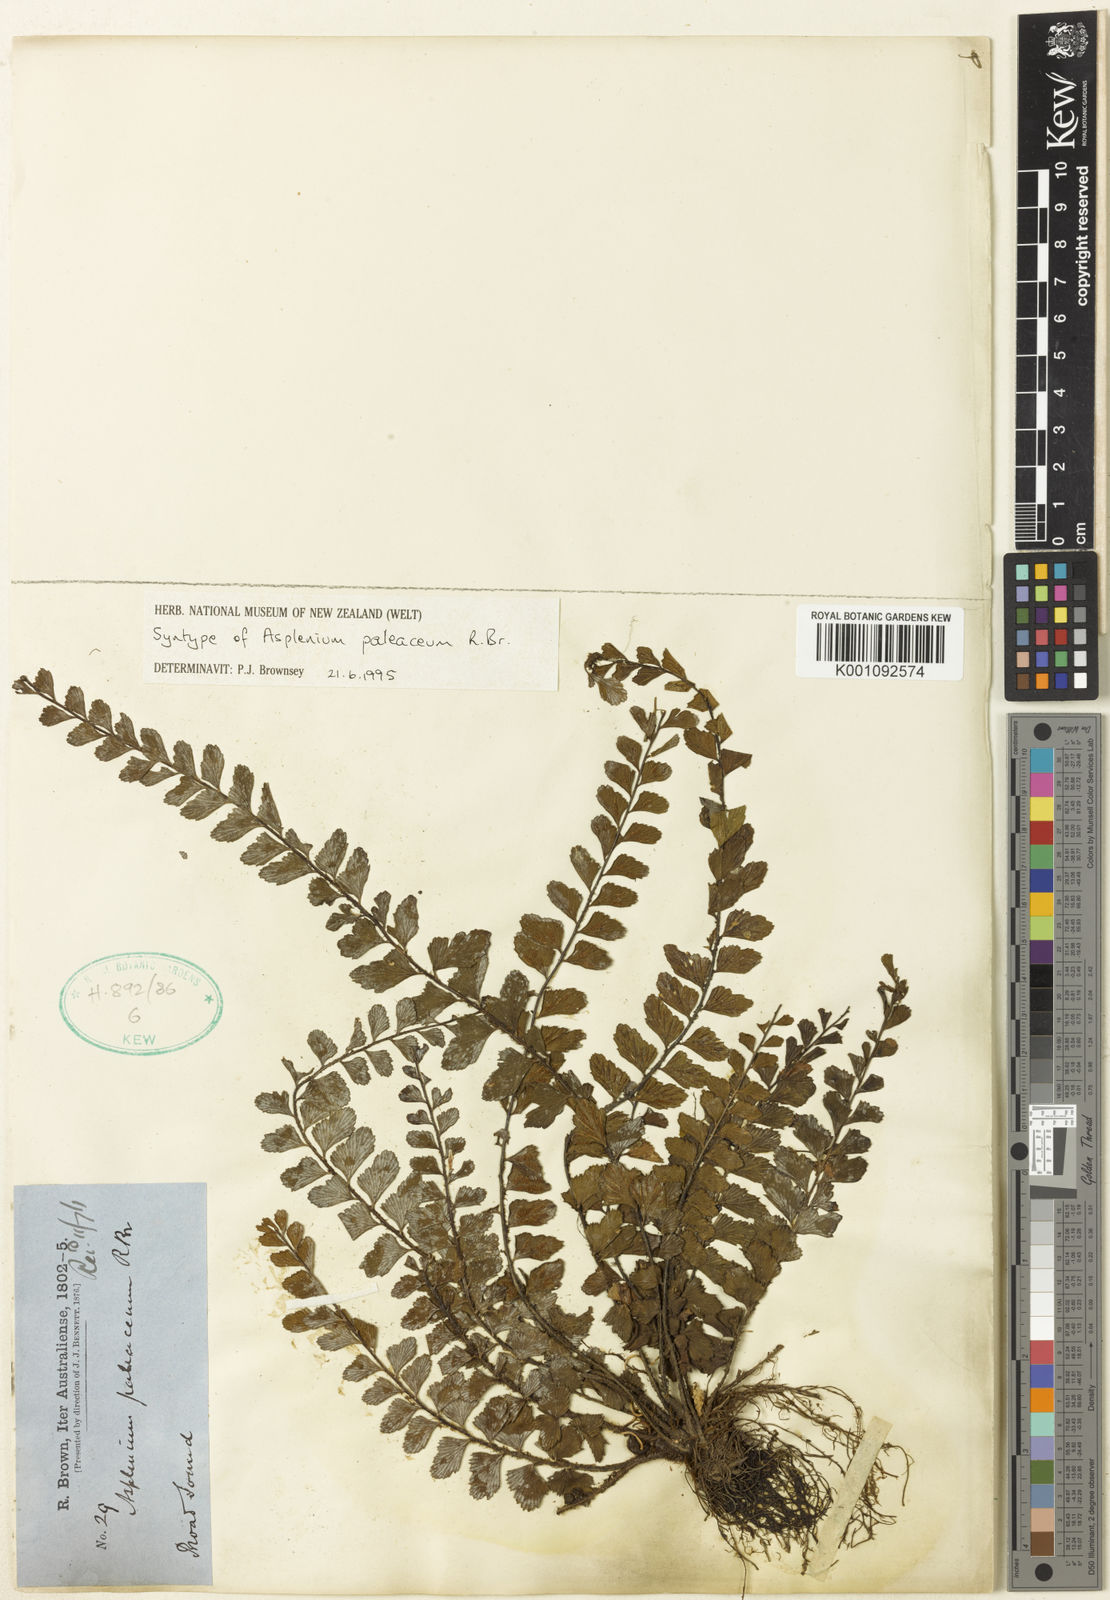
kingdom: Plantae
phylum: Tracheophyta
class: Polypodiopsida
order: Polypodiales
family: Aspleniaceae
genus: Asplenium
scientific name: Asplenium paleaceum
